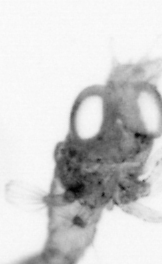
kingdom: Animalia
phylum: Annelida
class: Polychaeta
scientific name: Polychaeta
